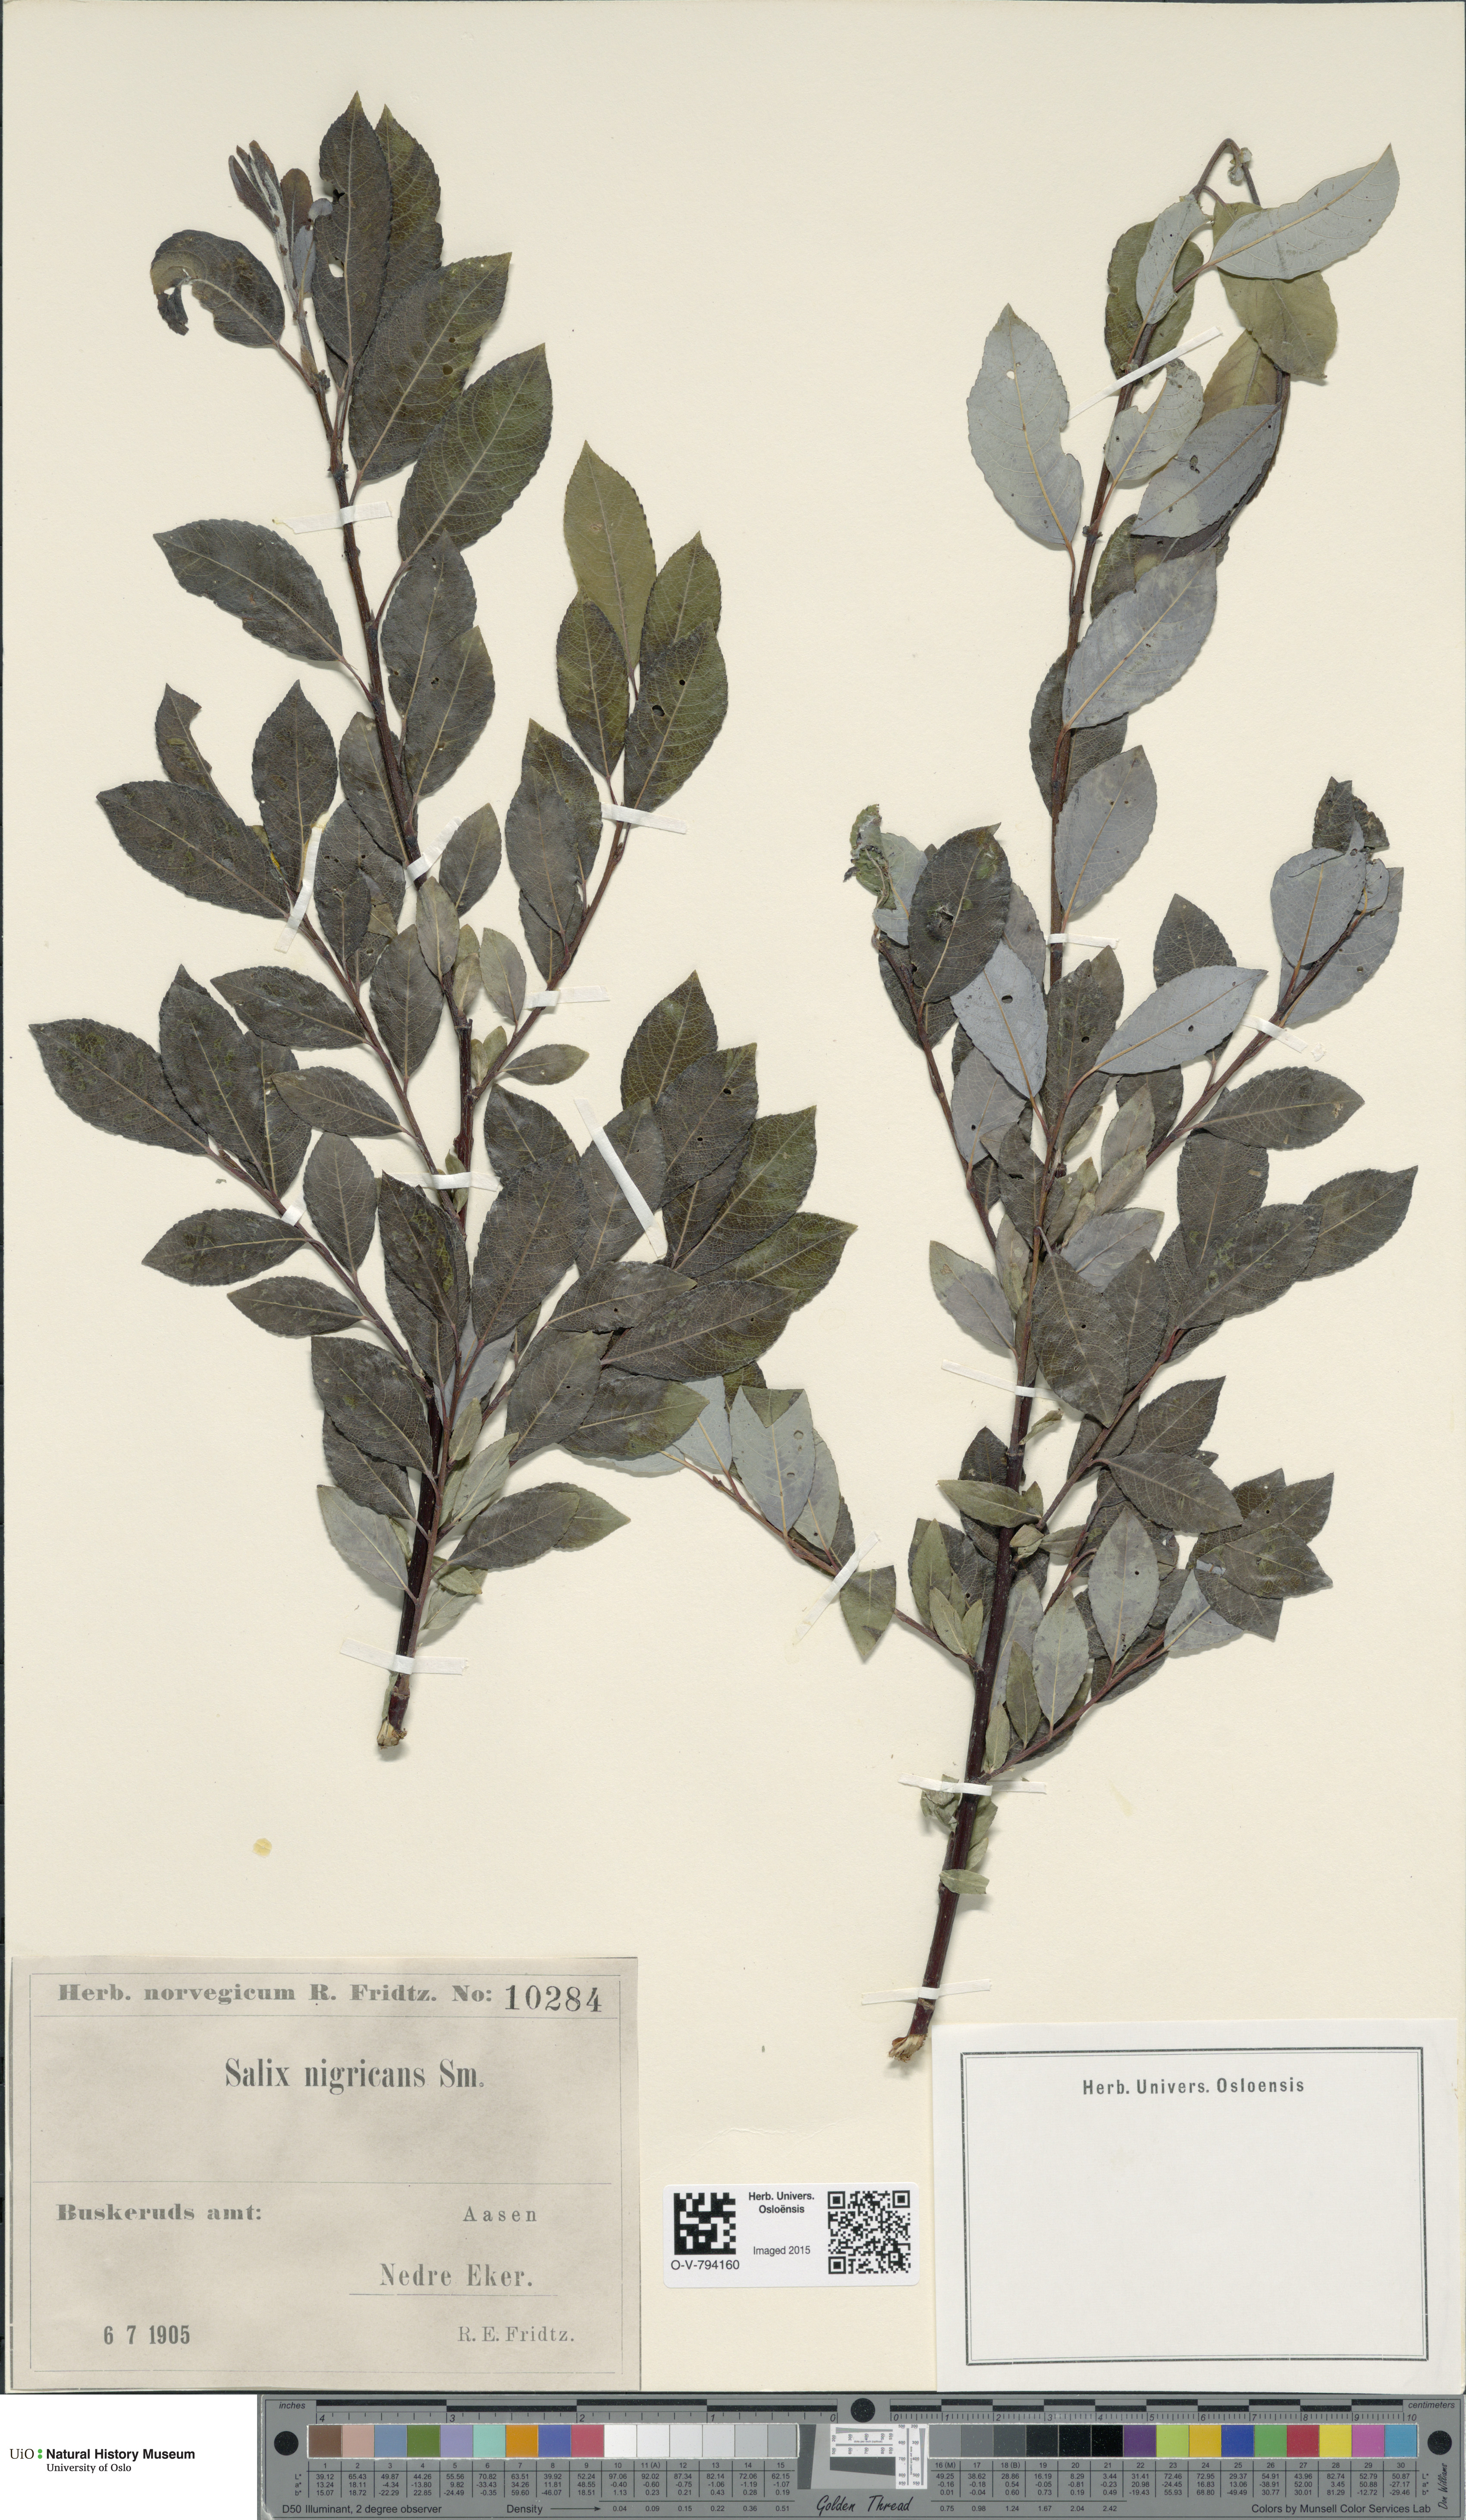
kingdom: Plantae
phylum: Tracheophyta
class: Magnoliopsida
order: Malpighiales
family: Salicaceae
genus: Salix
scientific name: Salix myrsinifolia
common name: Dark-leaved willow
